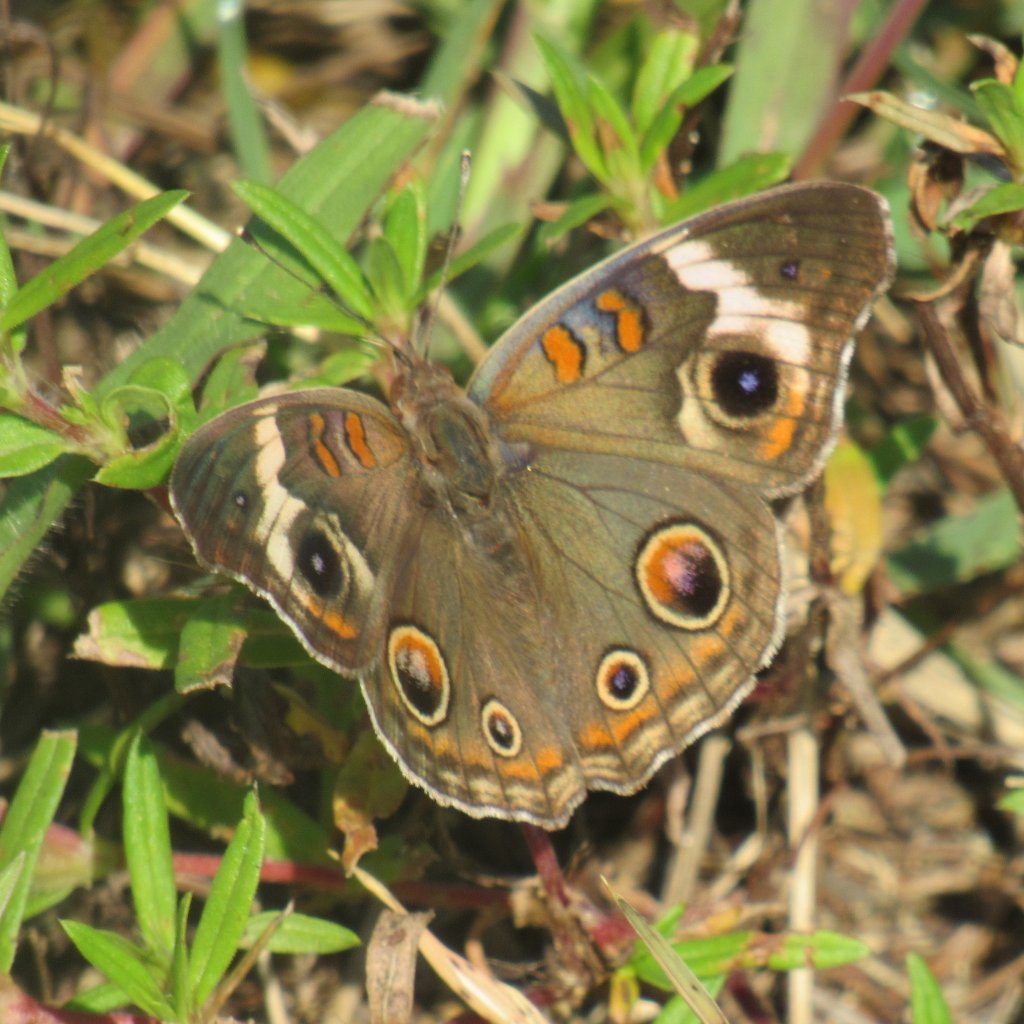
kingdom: Animalia
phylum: Arthropoda
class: Insecta
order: Lepidoptera
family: Nymphalidae
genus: Junonia
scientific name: Junonia coenia
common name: Common Buckeye
